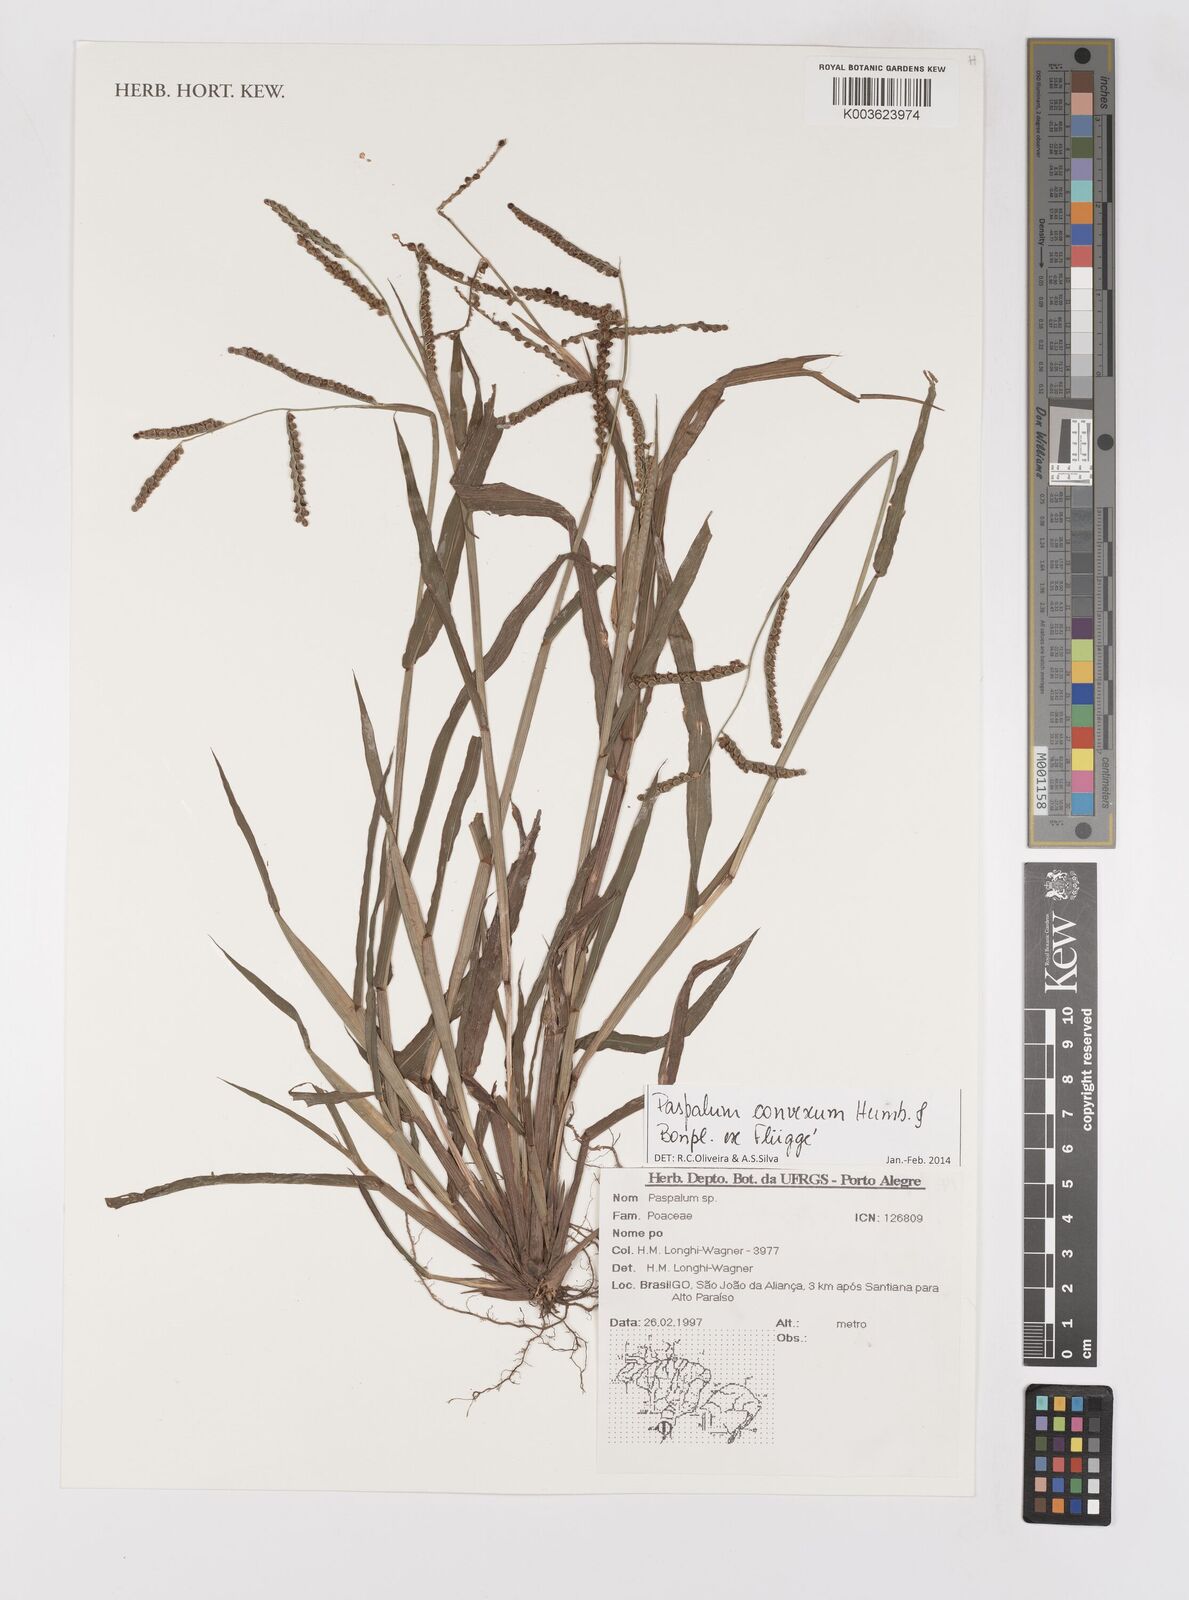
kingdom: Plantae
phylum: Tracheophyta
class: Liliopsida
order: Poales
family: Poaceae
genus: Paspalum
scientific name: Paspalum convexum
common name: Latin american crowngrass
